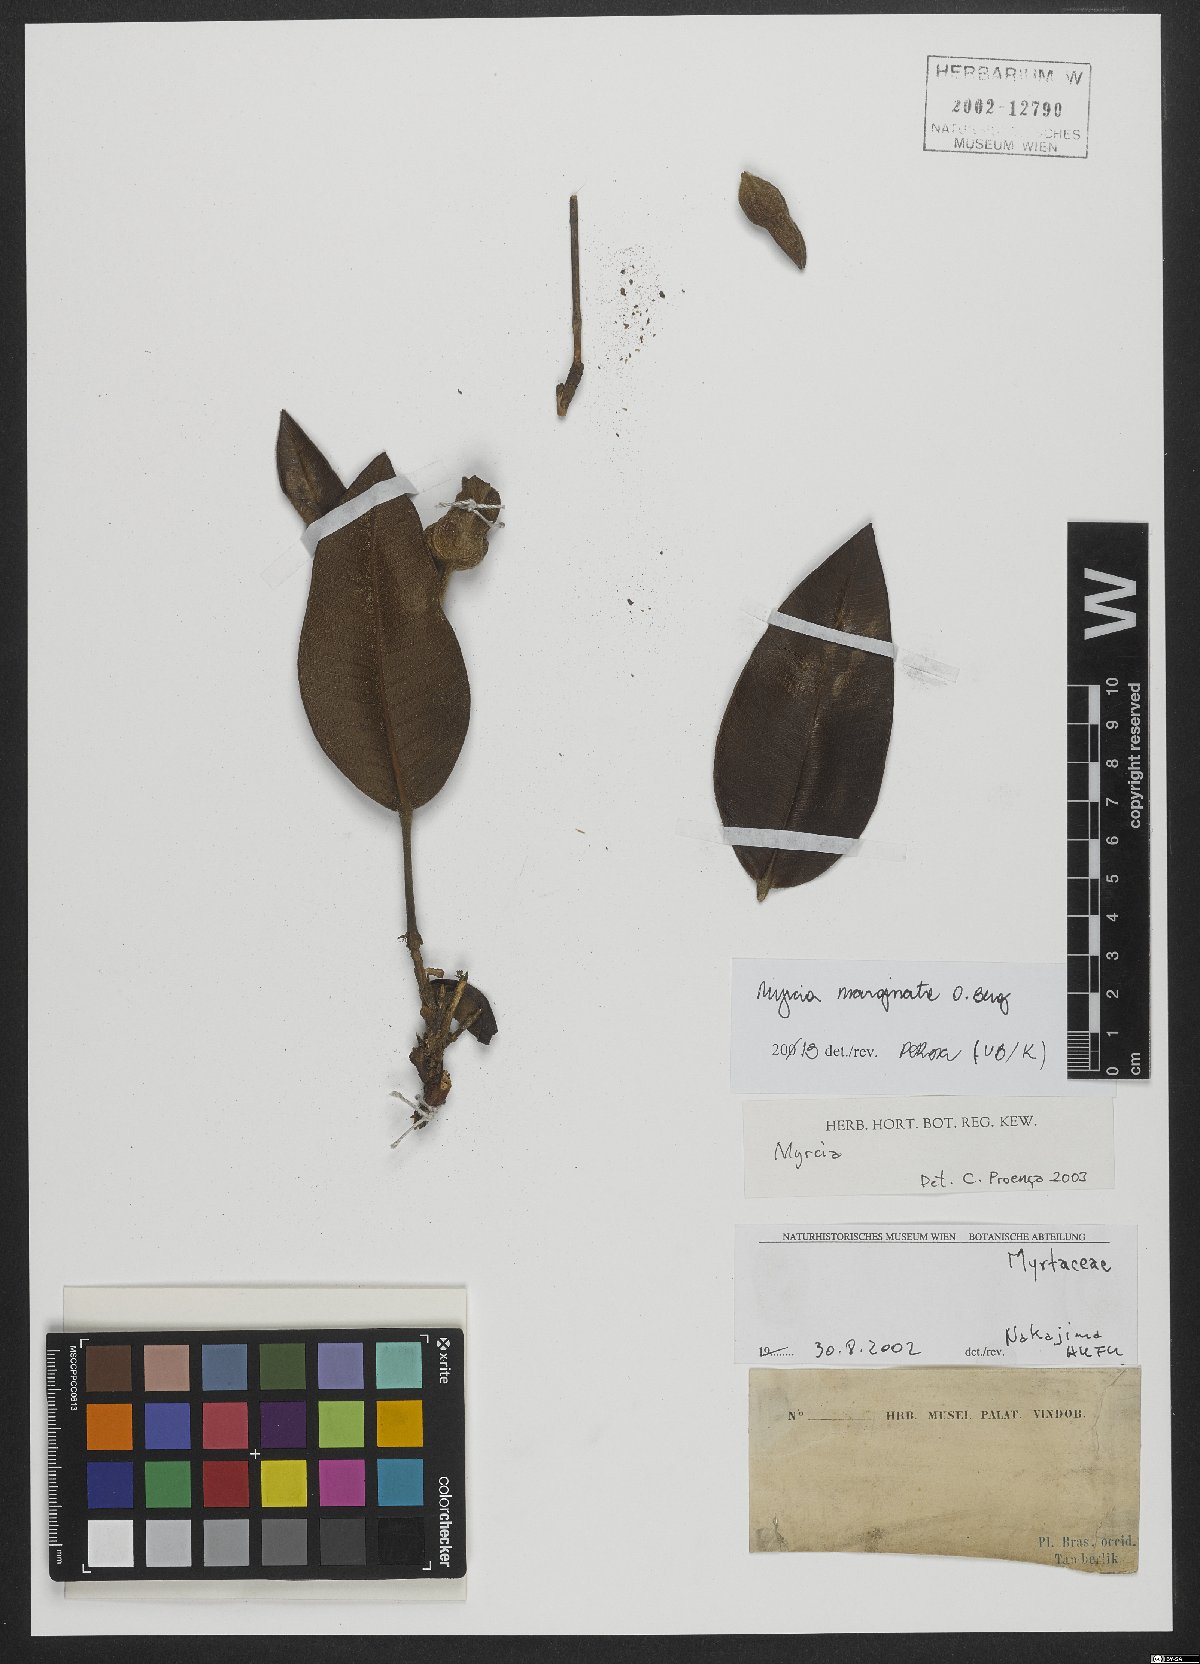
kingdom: Plantae
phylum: Tracheophyta
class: Magnoliopsida
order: Myrtales
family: Myrtaceae
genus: Myrcia
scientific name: Myrcia marginata
